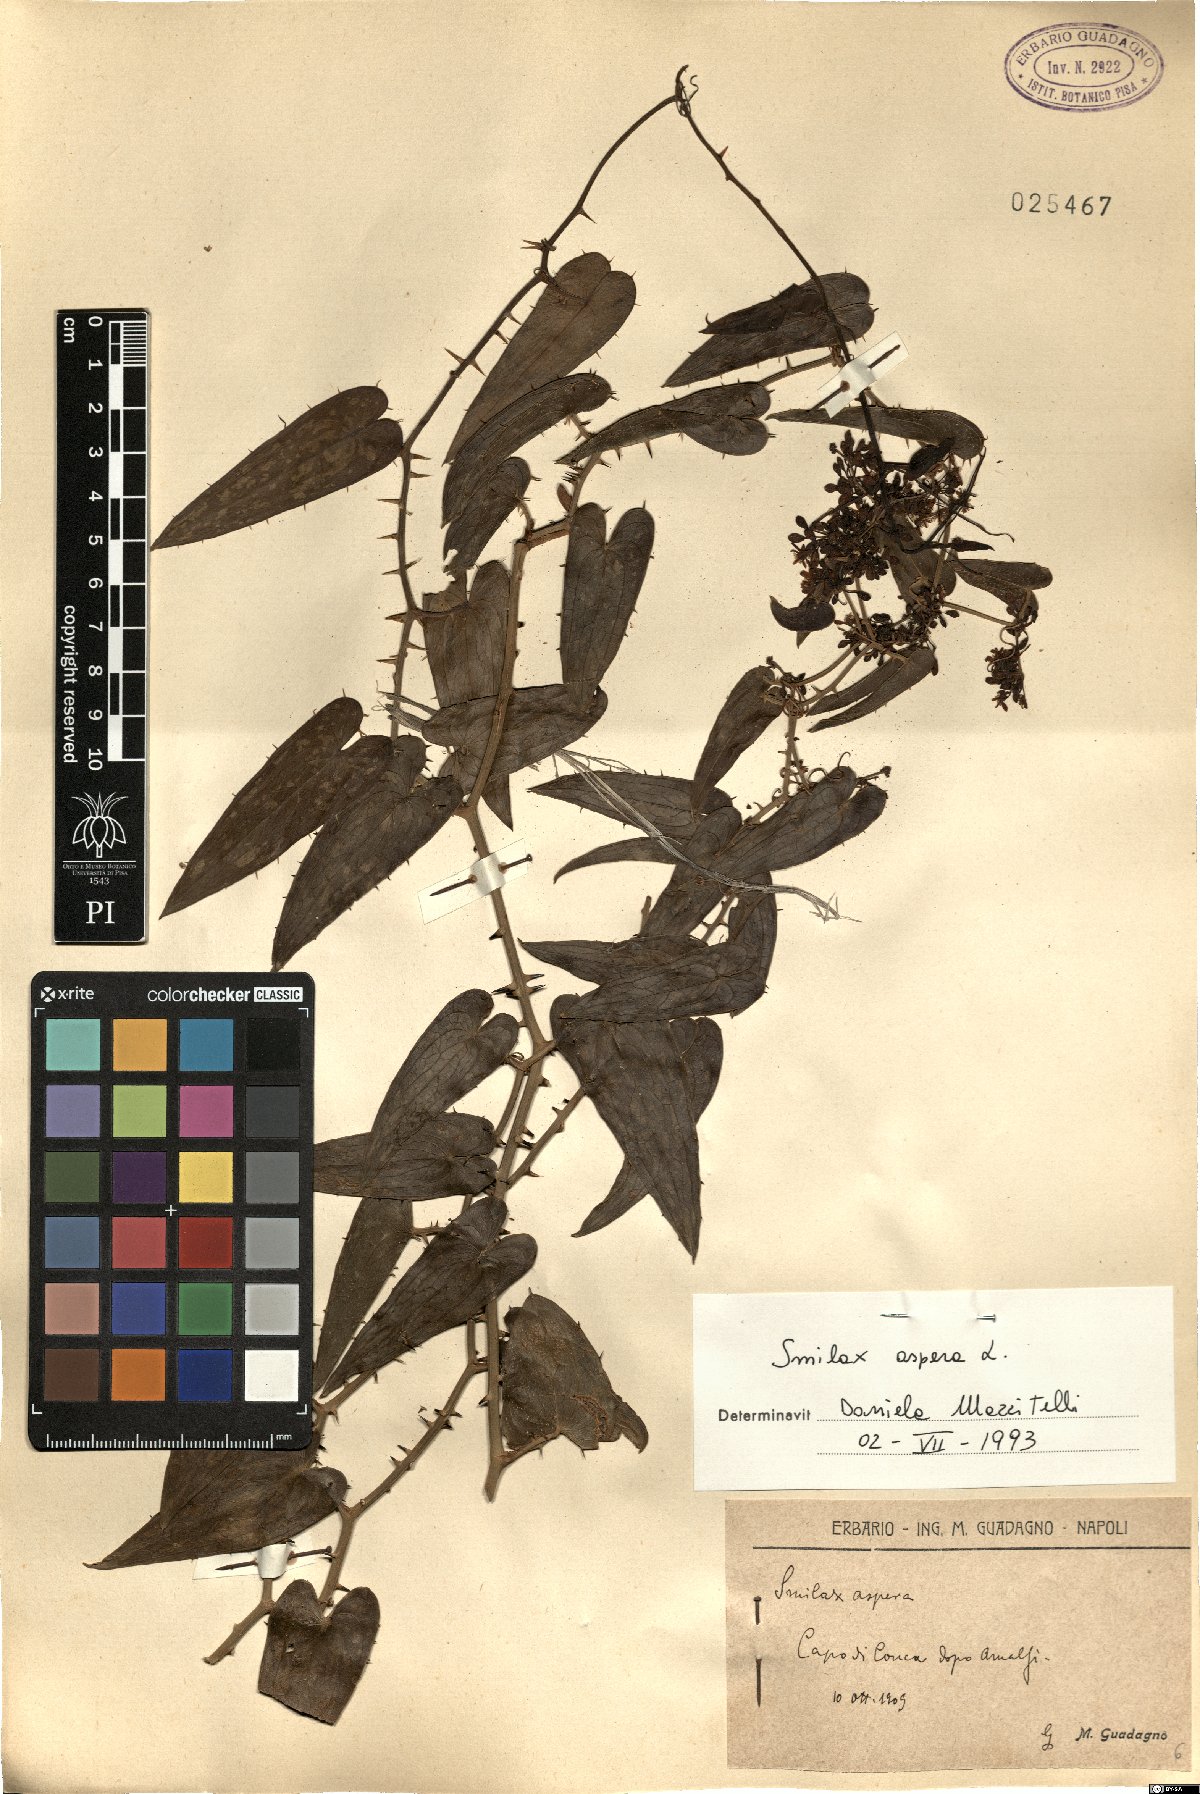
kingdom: Plantae
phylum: Tracheophyta
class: Liliopsida
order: Liliales
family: Smilacaceae
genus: Smilax
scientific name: Smilax aspera
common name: Common smilax
